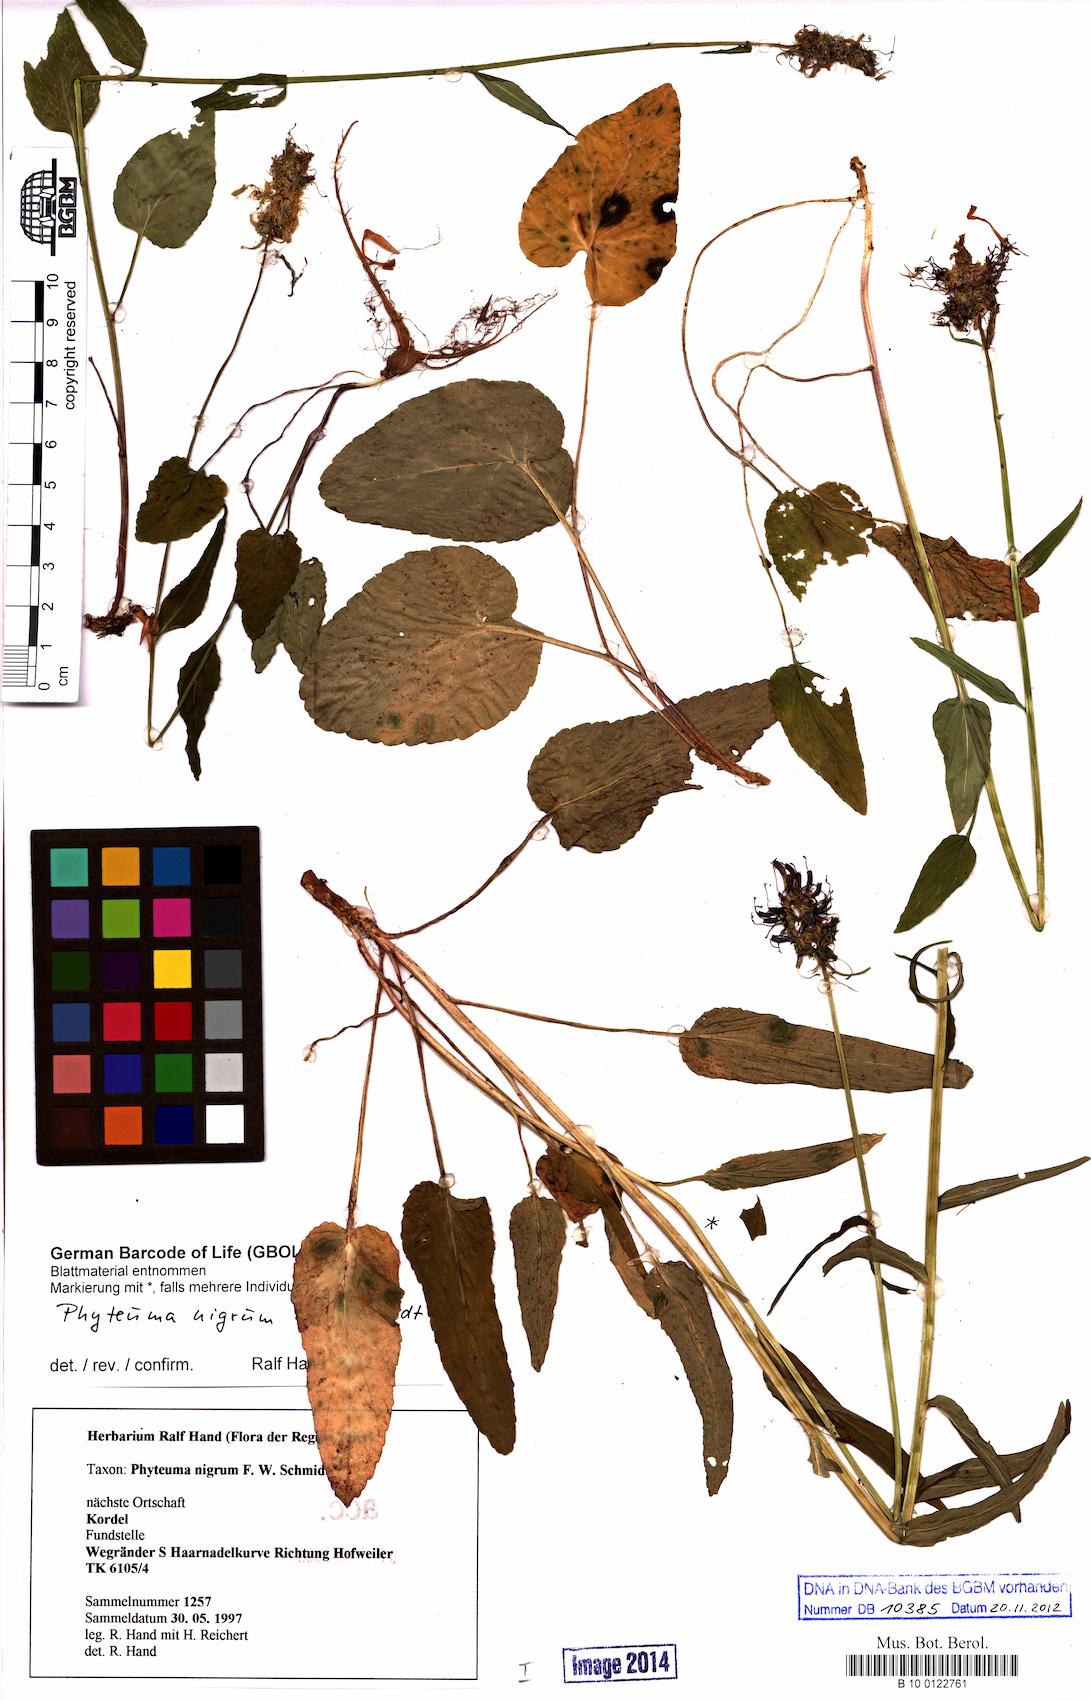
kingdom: Plantae
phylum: Tracheophyta
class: Magnoliopsida
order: Asterales
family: Campanulaceae
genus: Phyteuma
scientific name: Phyteuma nigrum
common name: Black rampion
